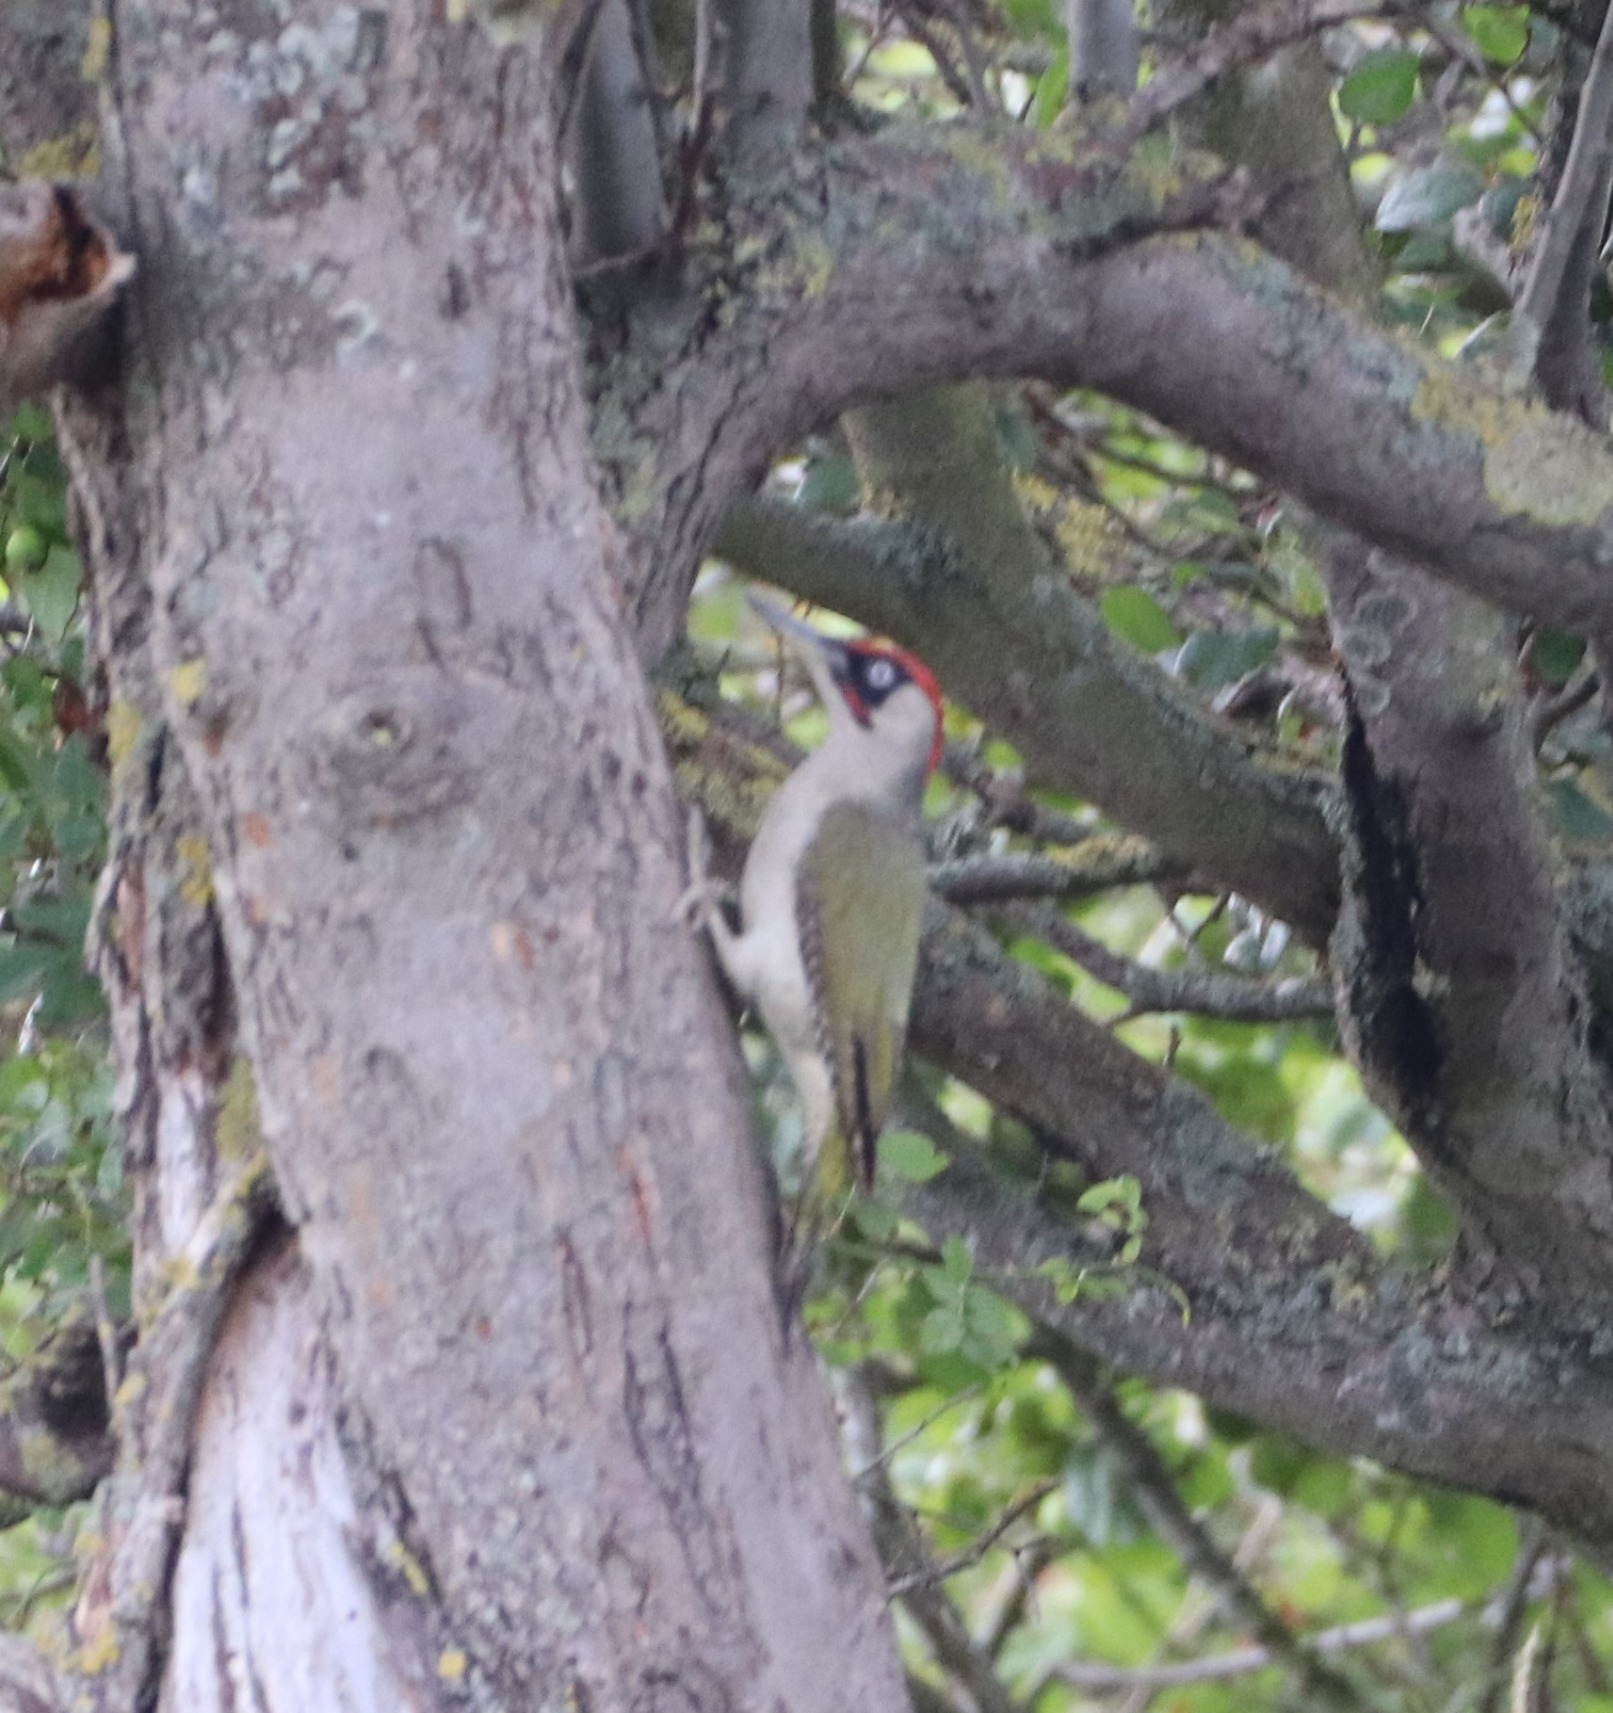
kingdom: Animalia
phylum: Chordata
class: Aves
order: Piciformes
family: Picidae
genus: Picus
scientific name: Picus viridis
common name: Grønspætte
